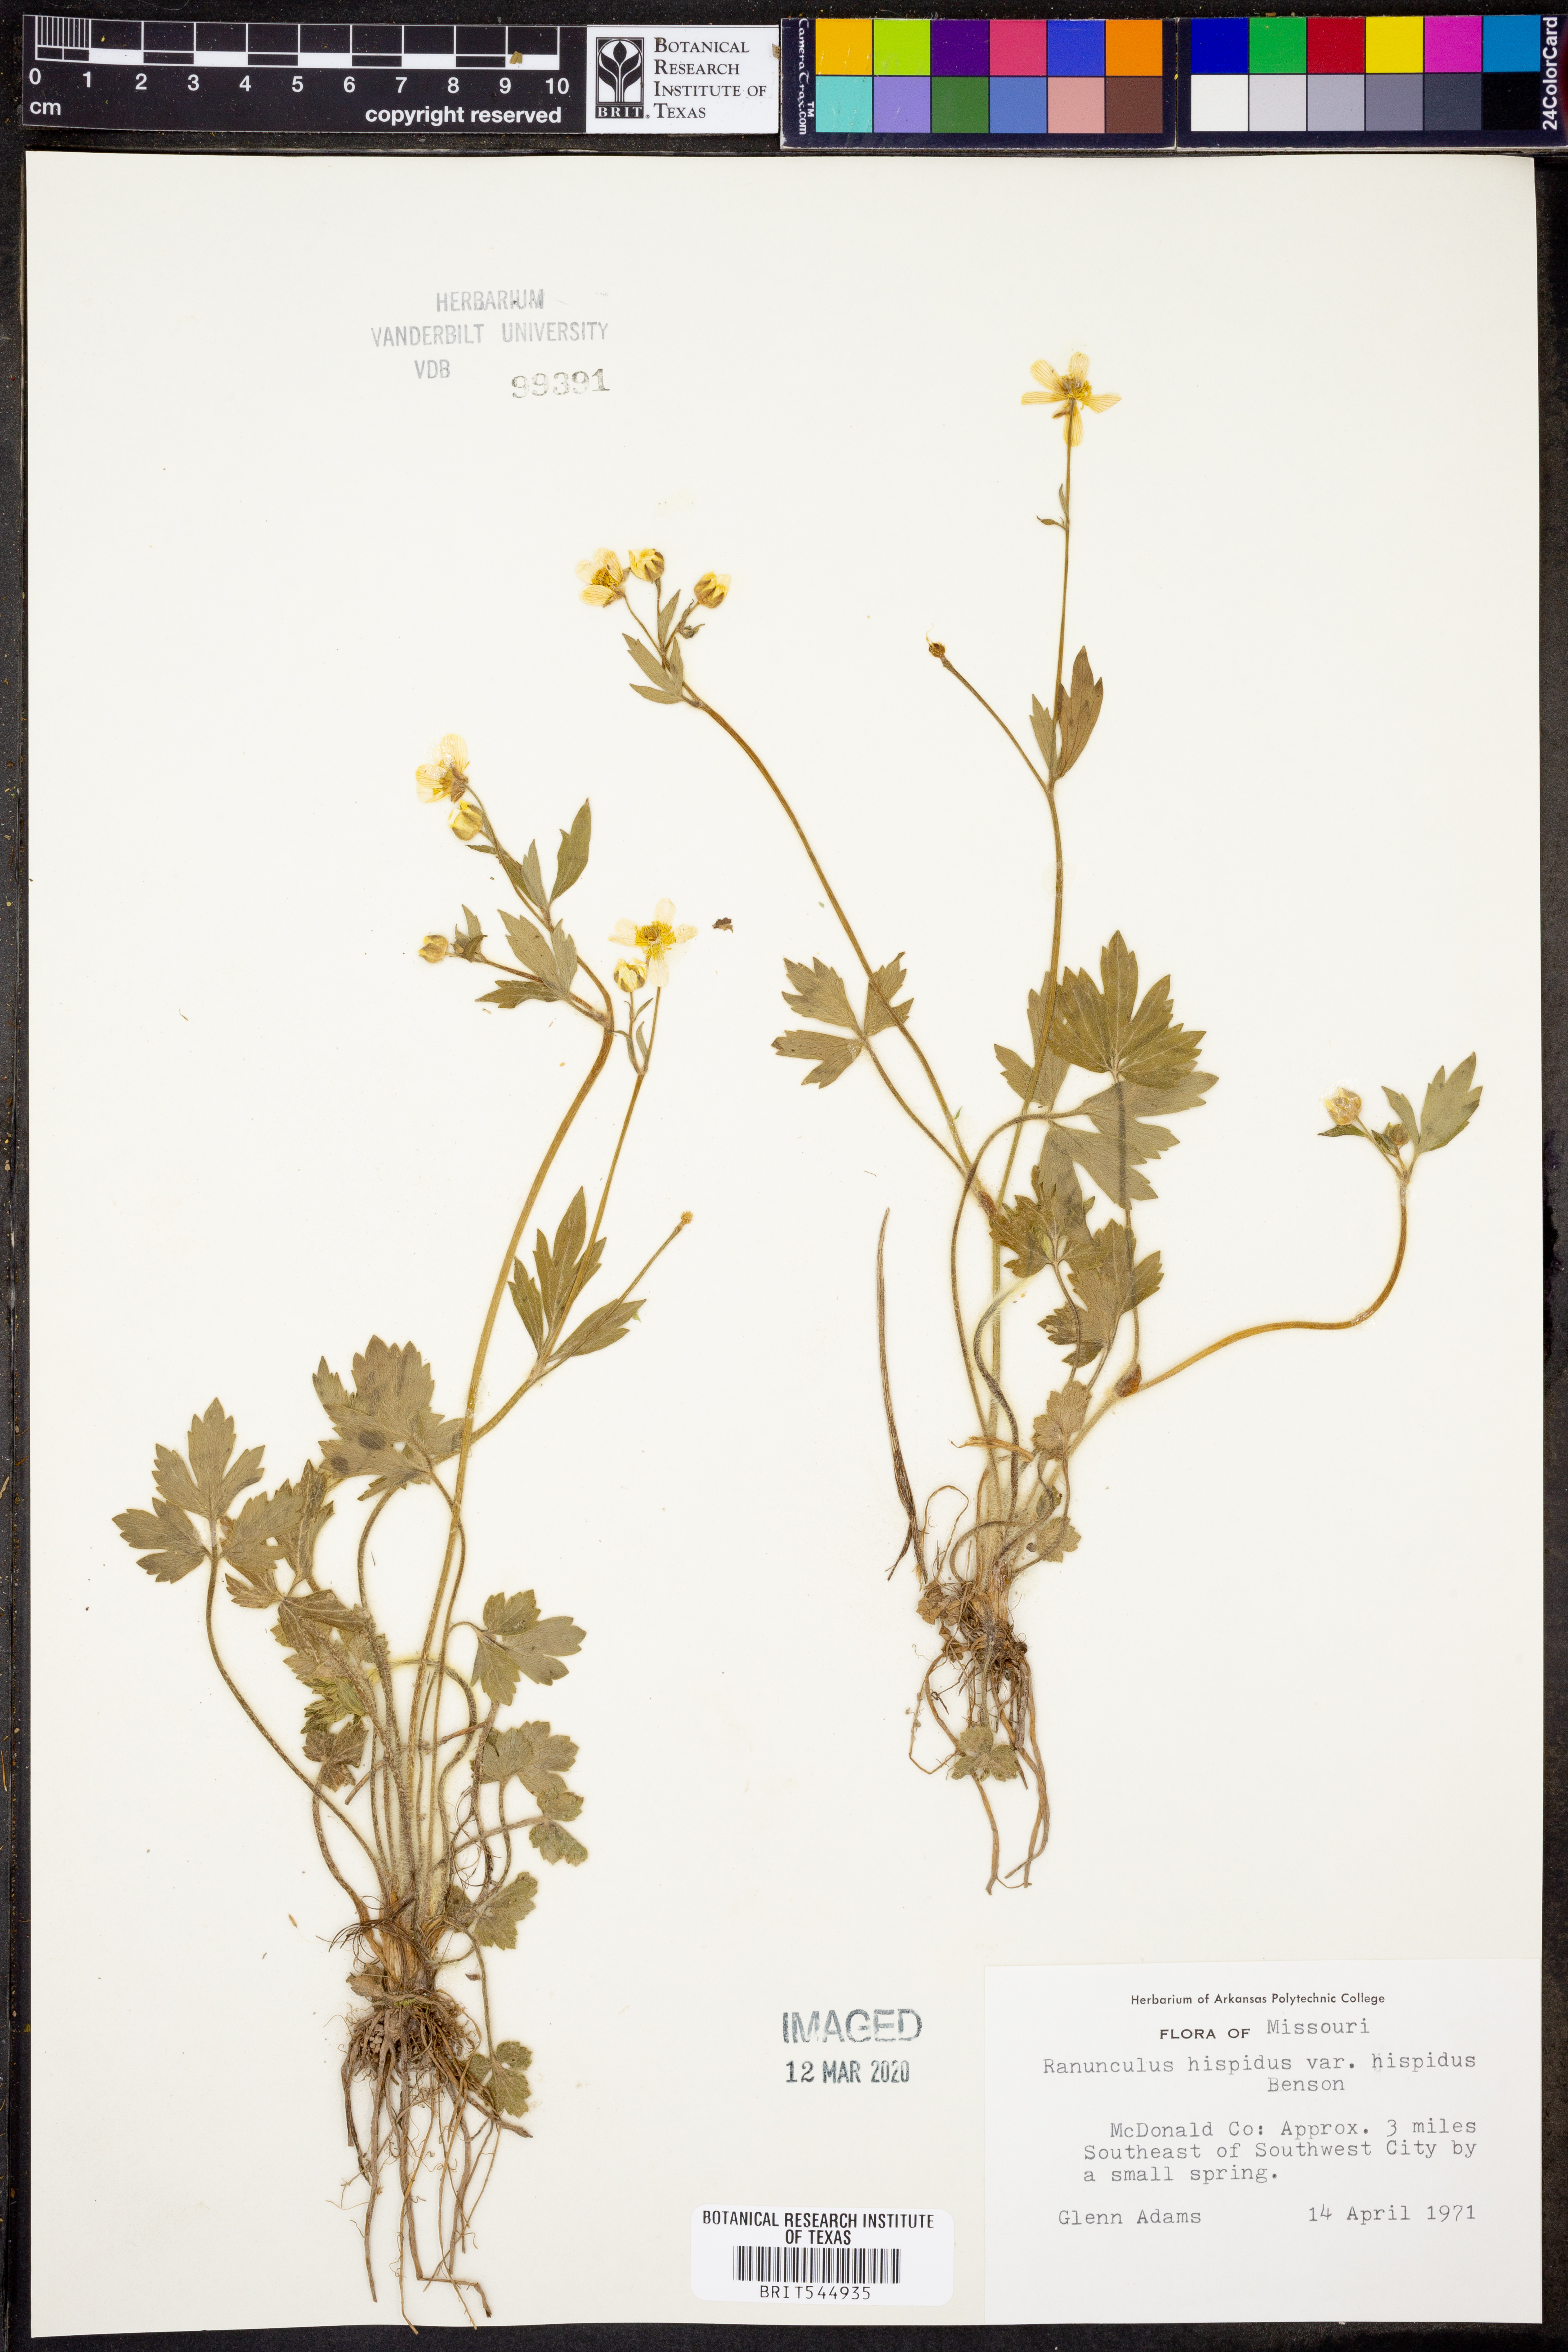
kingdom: Plantae
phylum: Tracheophyta
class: Magnoliopsida
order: Ranunculales
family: Ranunculaceae
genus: Ranunculus
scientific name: Ranunculus hispidus
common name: Bristly buttercup
